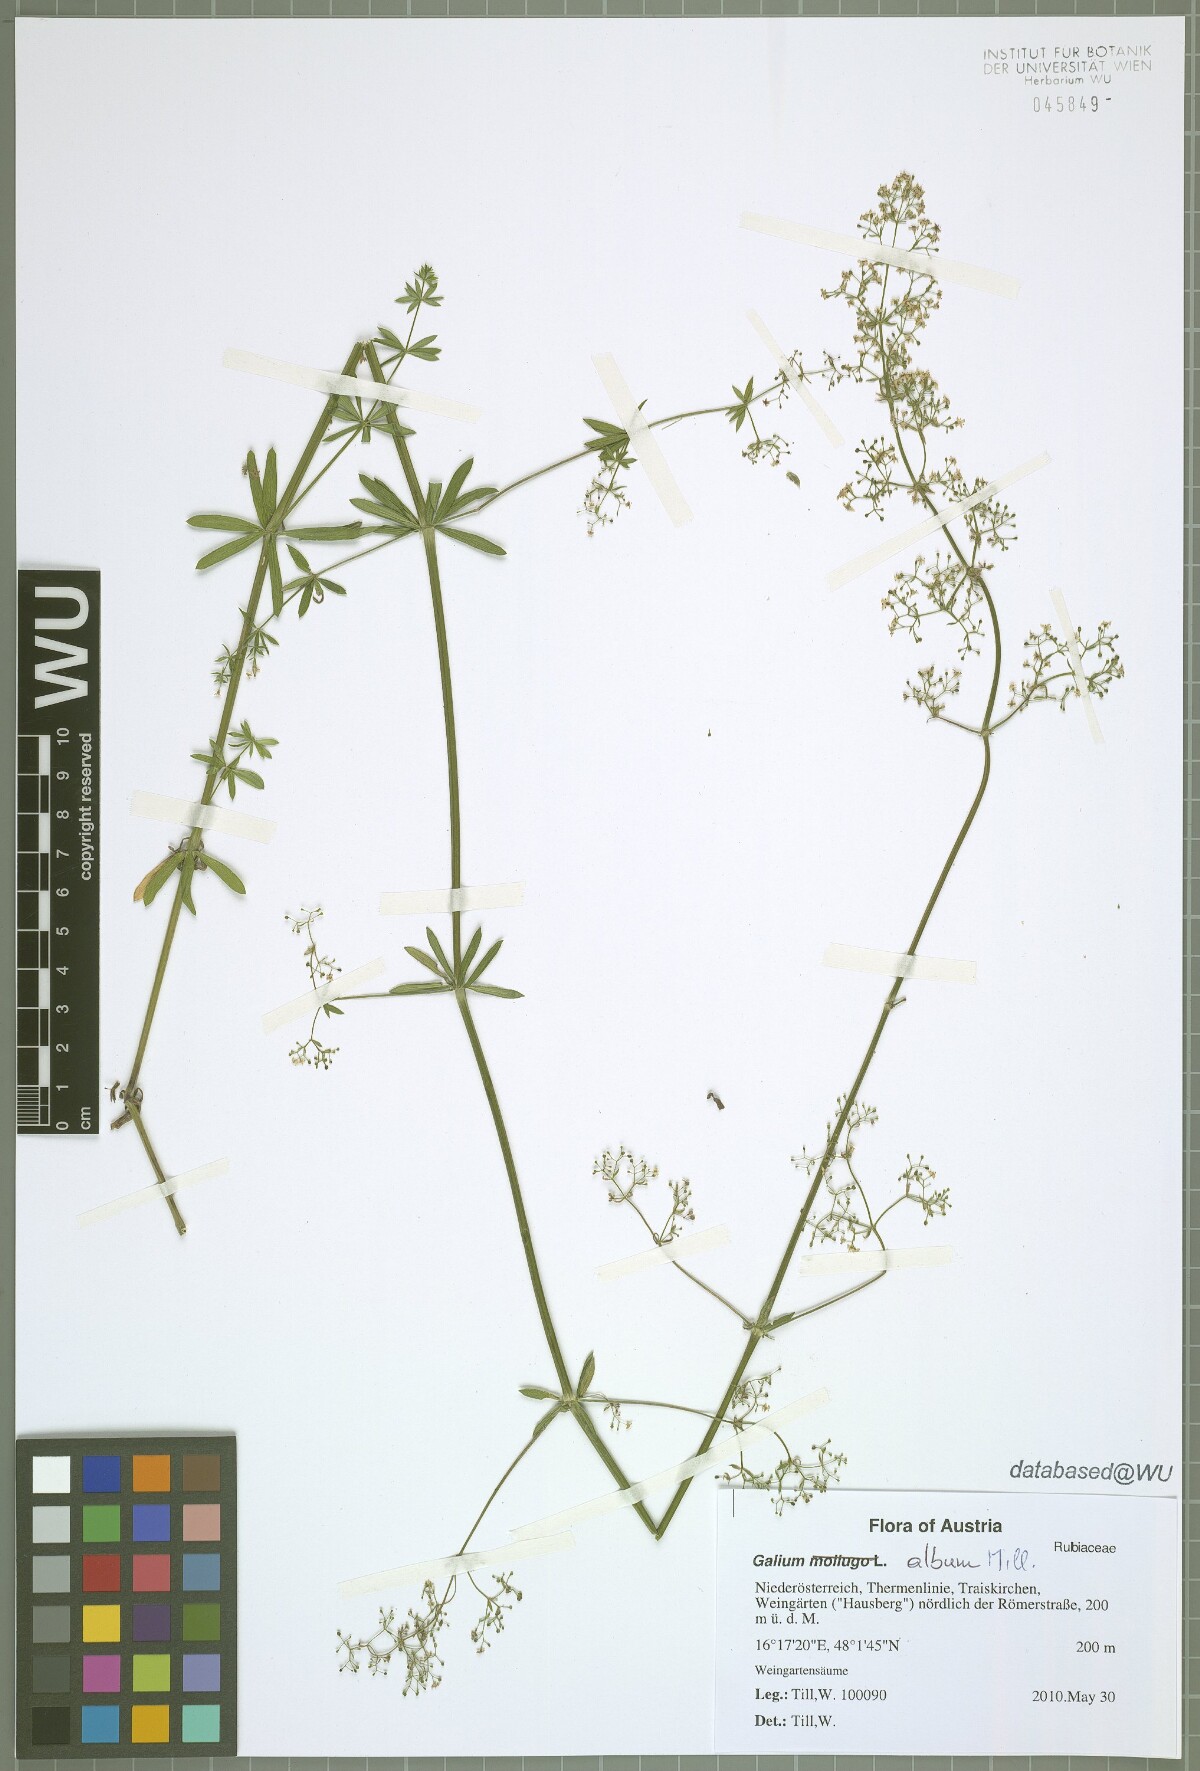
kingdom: Plantae
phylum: Tracheophyta
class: Magnoliopsida
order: Gentianales
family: Rubiaceae
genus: Galium
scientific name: Galium album
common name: White bedstraw
